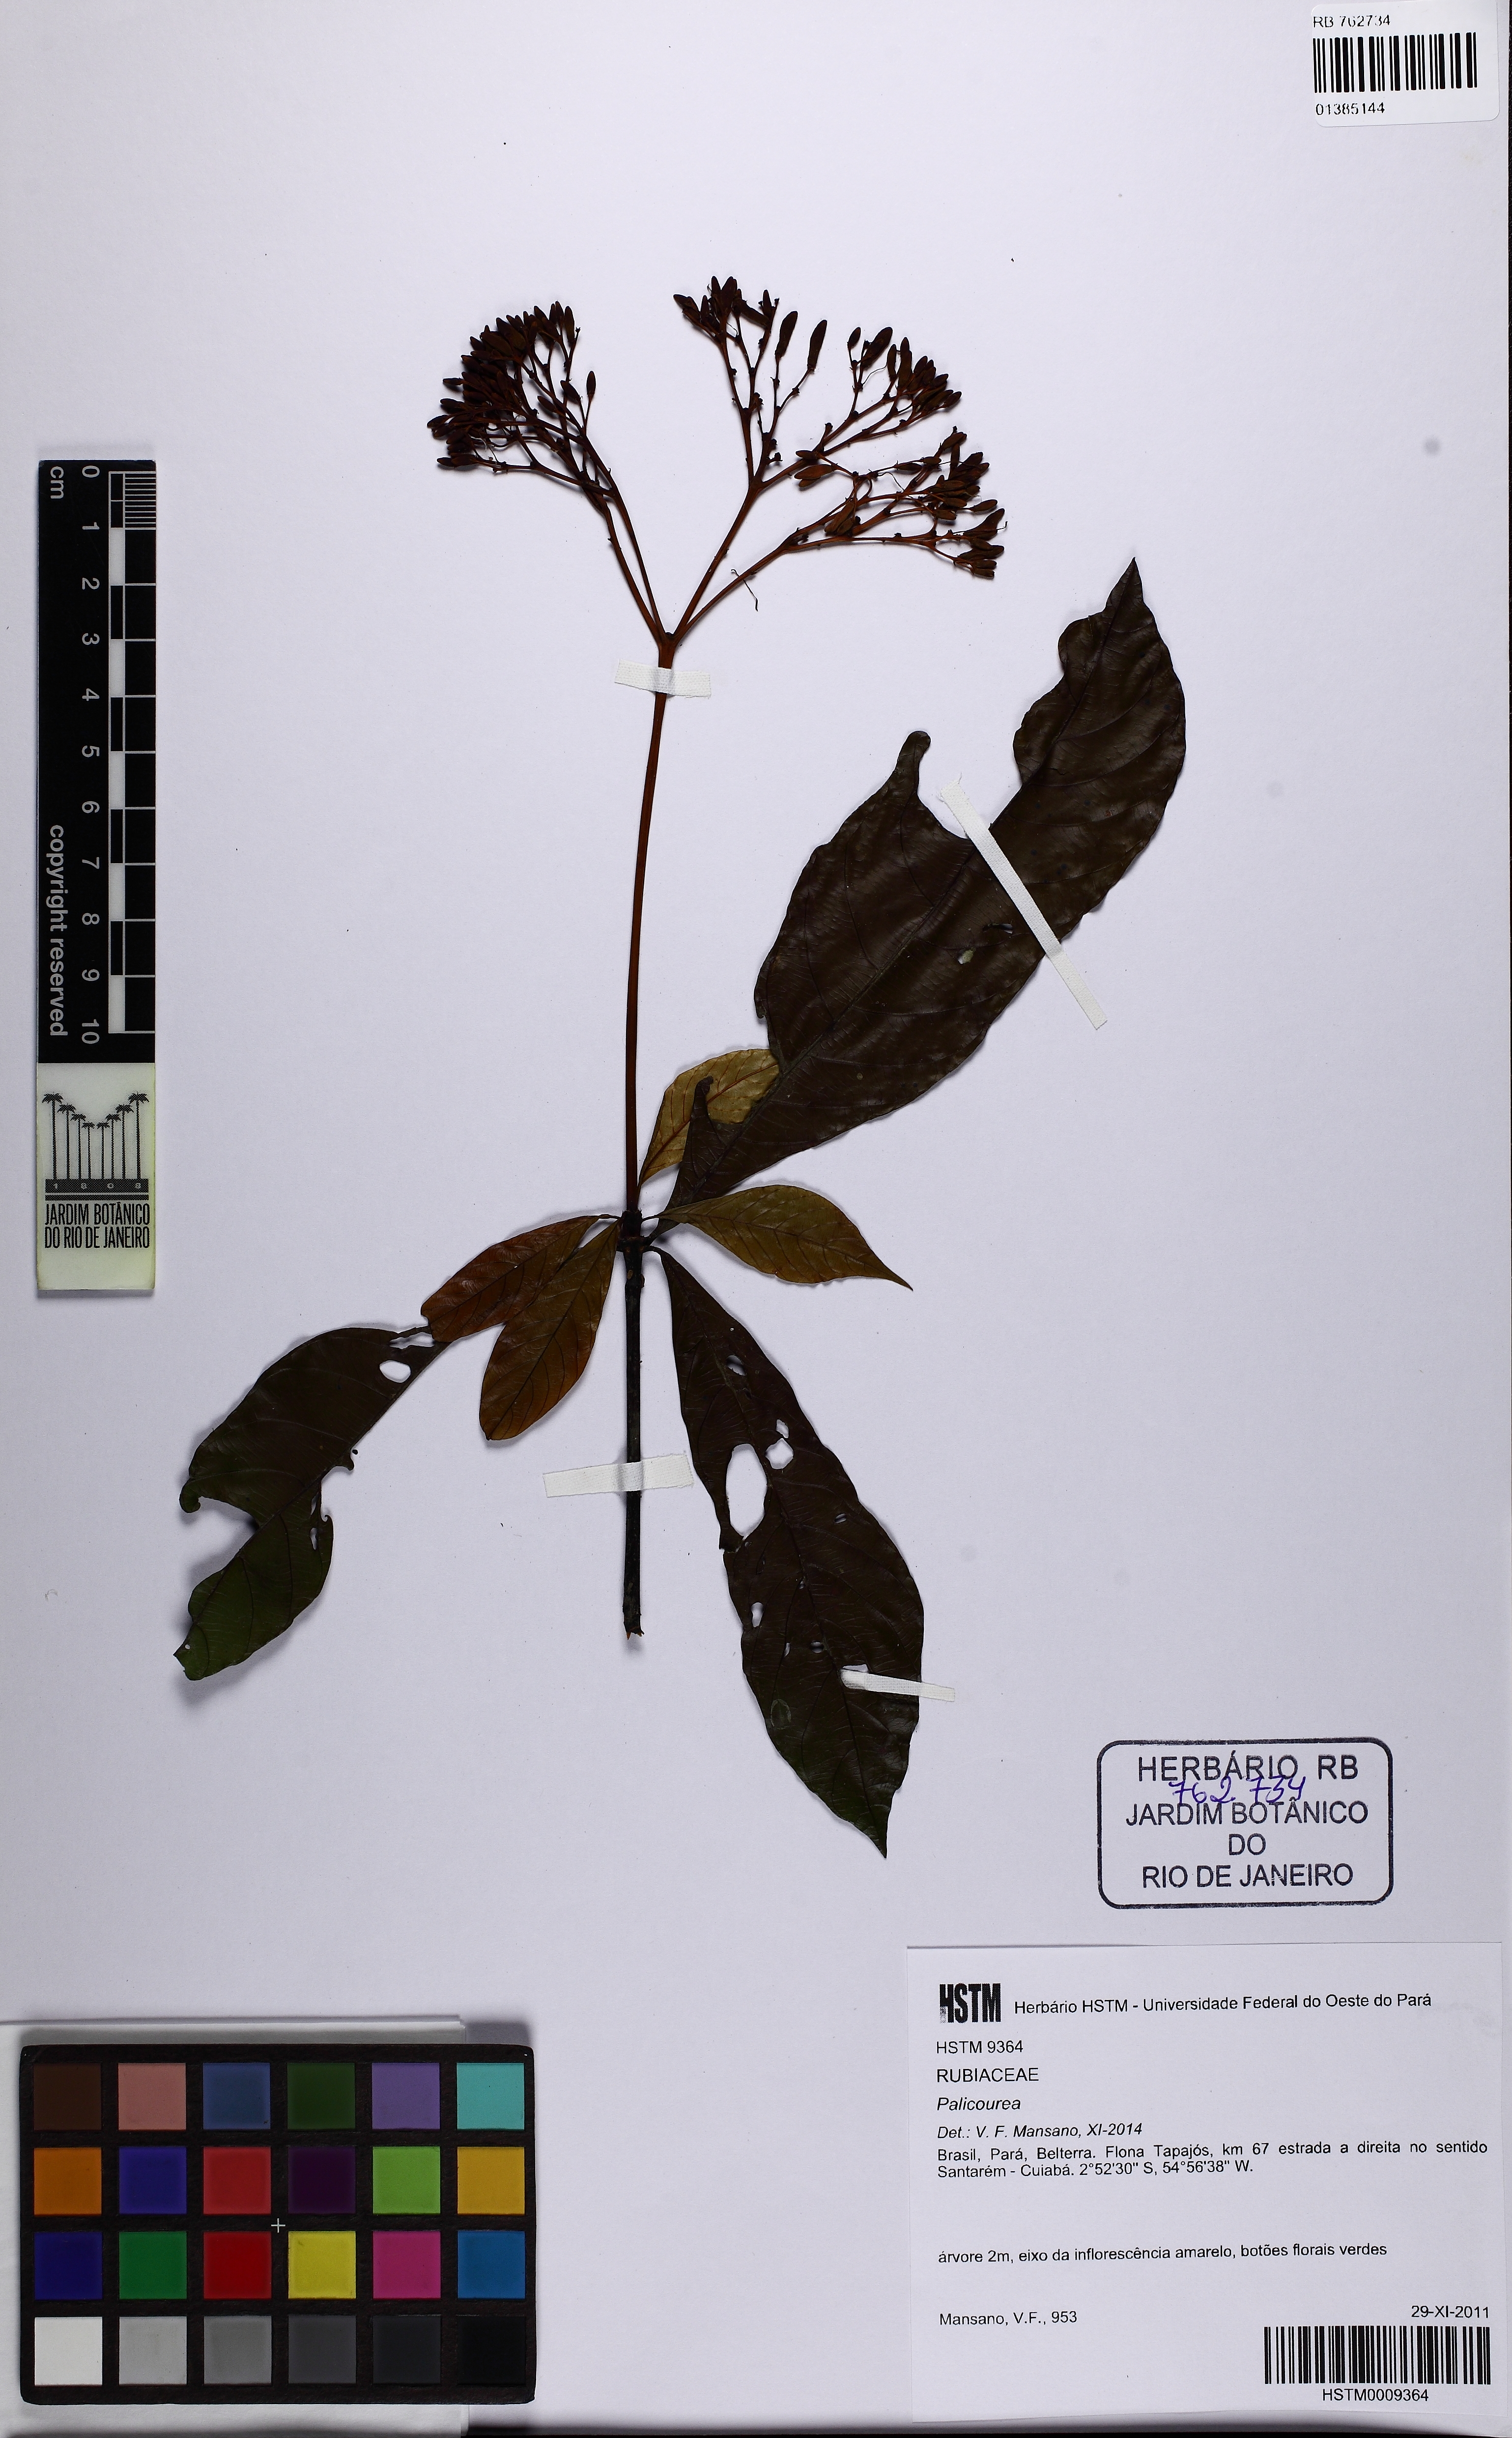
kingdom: Plantae
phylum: Tracheophyta
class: Magnoliopsida
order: Gentianales
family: Rubiaceae
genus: Palicourea
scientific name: Palicourea
